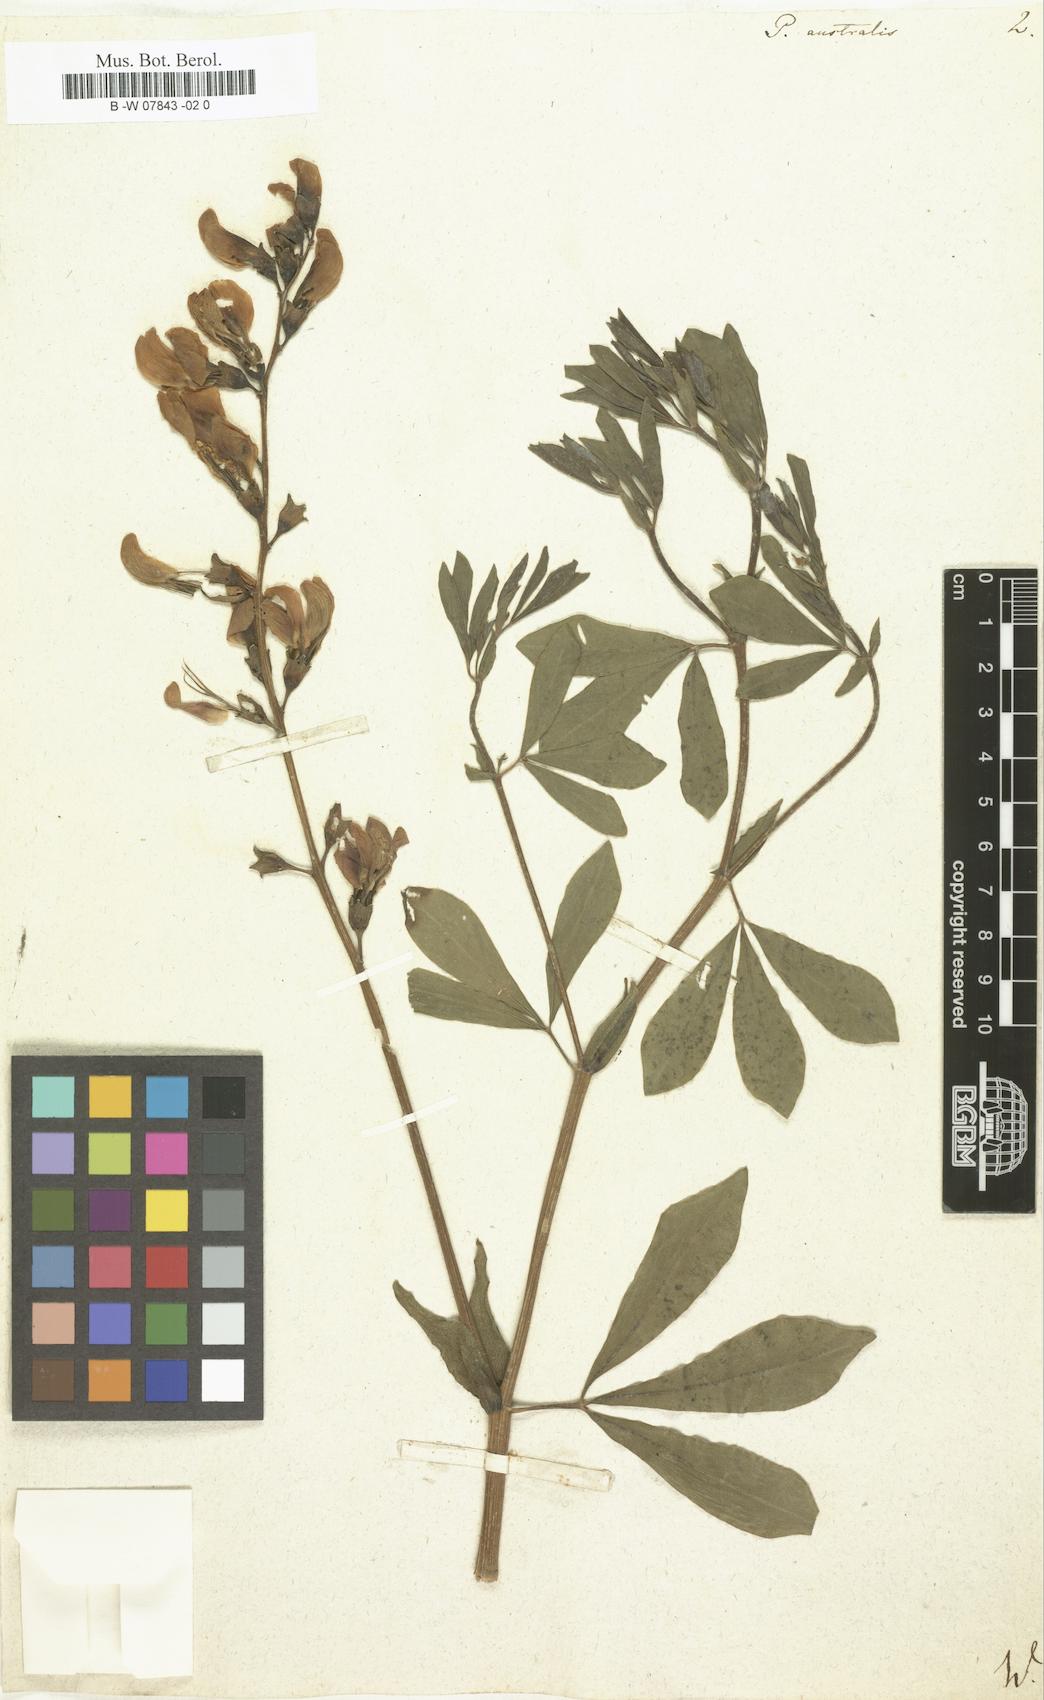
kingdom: Plantae
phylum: Tracheophyta
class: Magnoliopsida
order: Fabales
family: Fabaceae
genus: Baptisia
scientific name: Baptisia australis
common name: Blue false indigo
